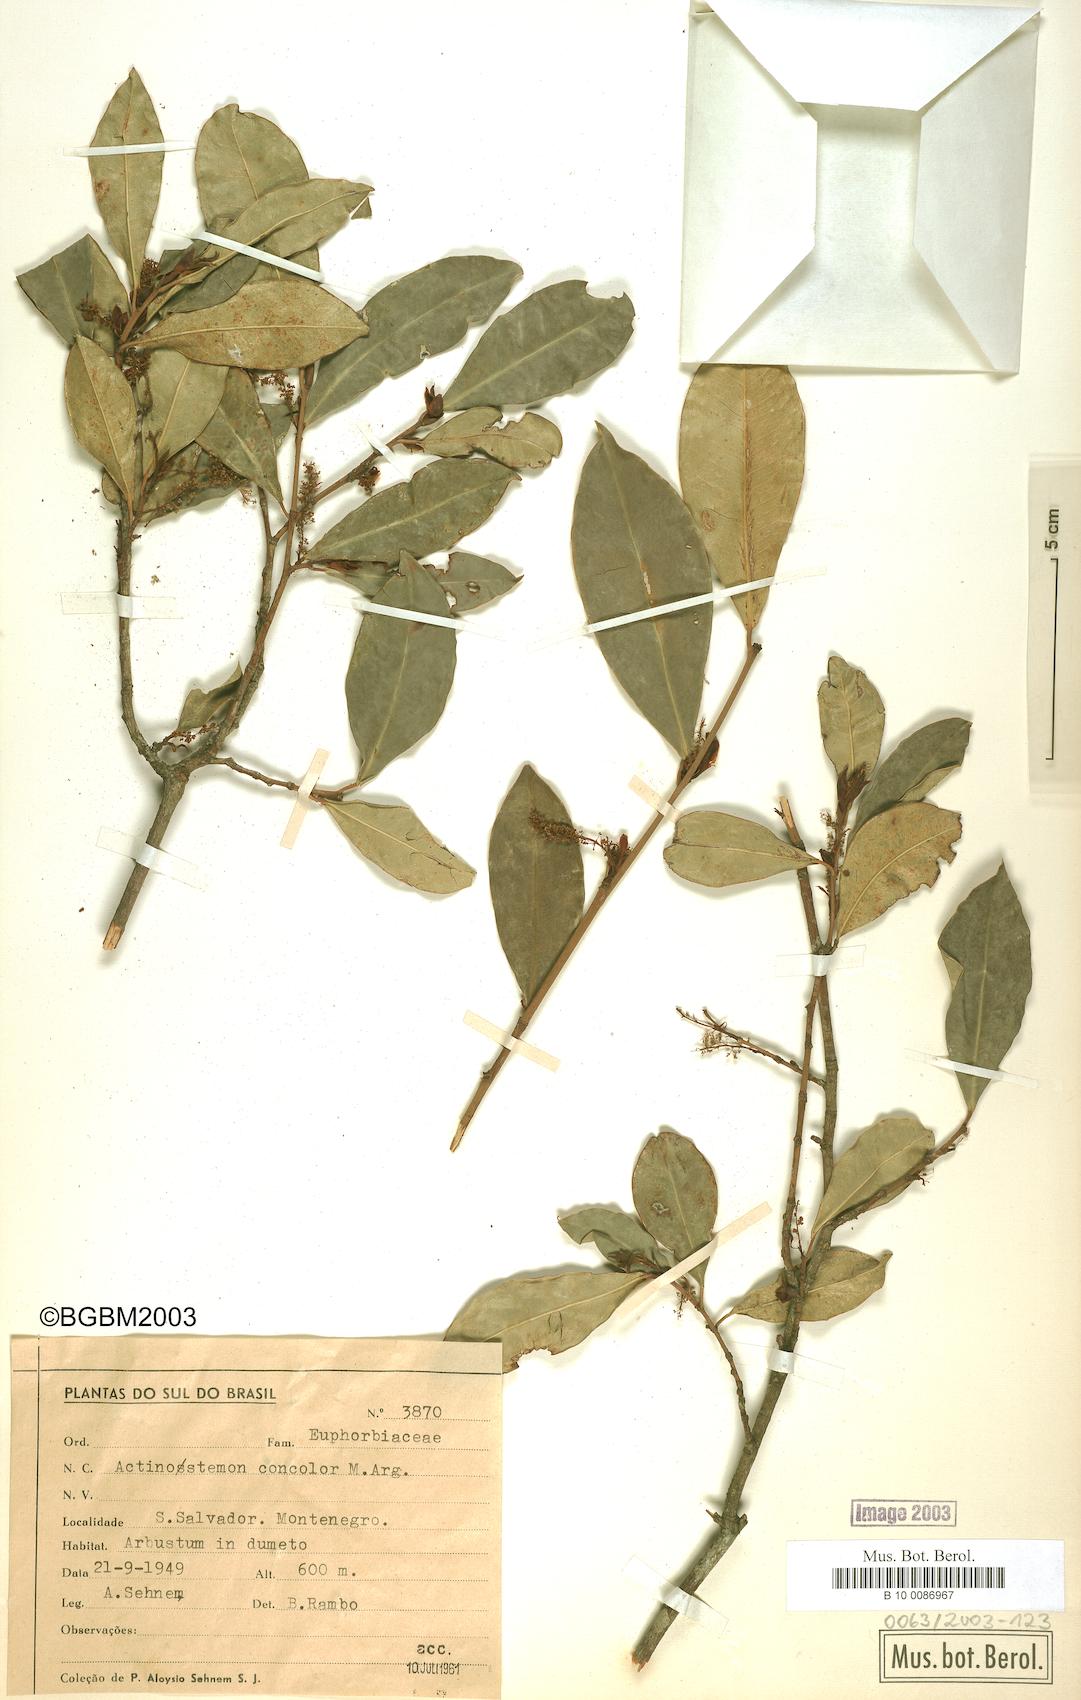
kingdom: Plantae
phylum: Tracheophyta
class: Magnoliopsida
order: Malpighiales
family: Euphorbiaceae
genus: Actinostemon
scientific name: Actinostemon concolor
